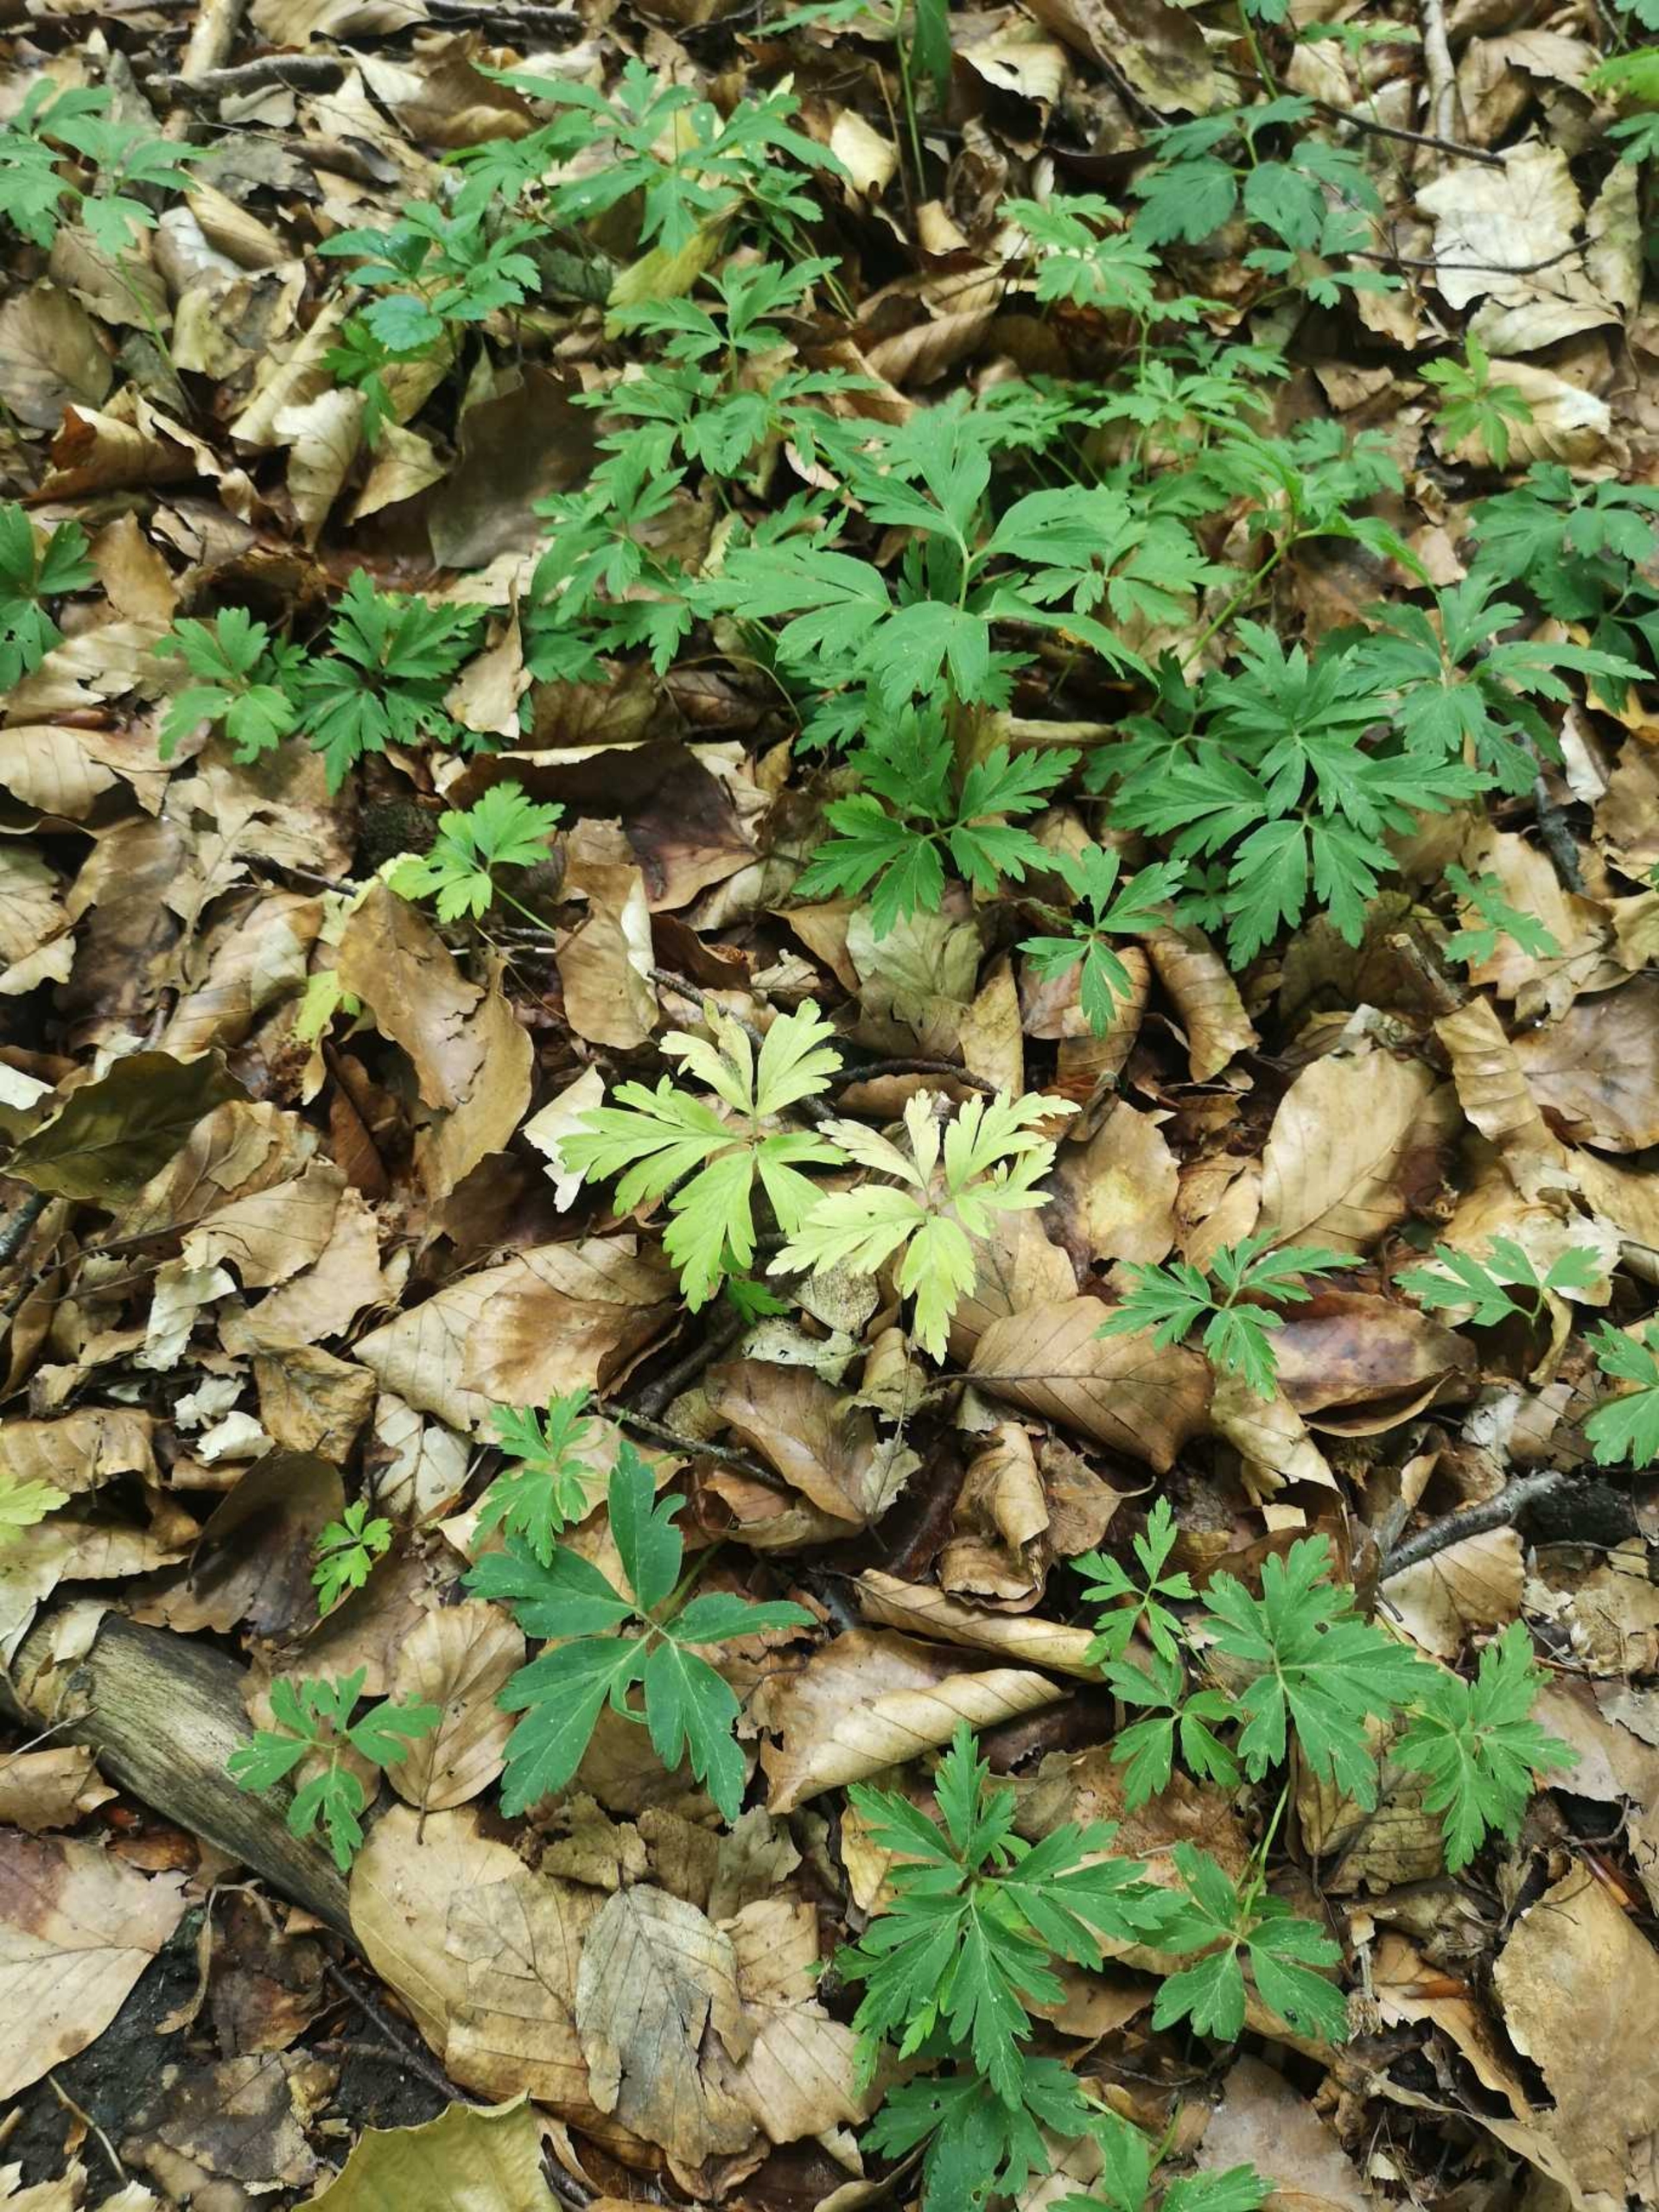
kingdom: Plantae
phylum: Tracheophyta
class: Magnoliopsida
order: Ranunculales
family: Ranunculaceae
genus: Anemone
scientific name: Anemone nemorosa
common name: Hvid anemone
